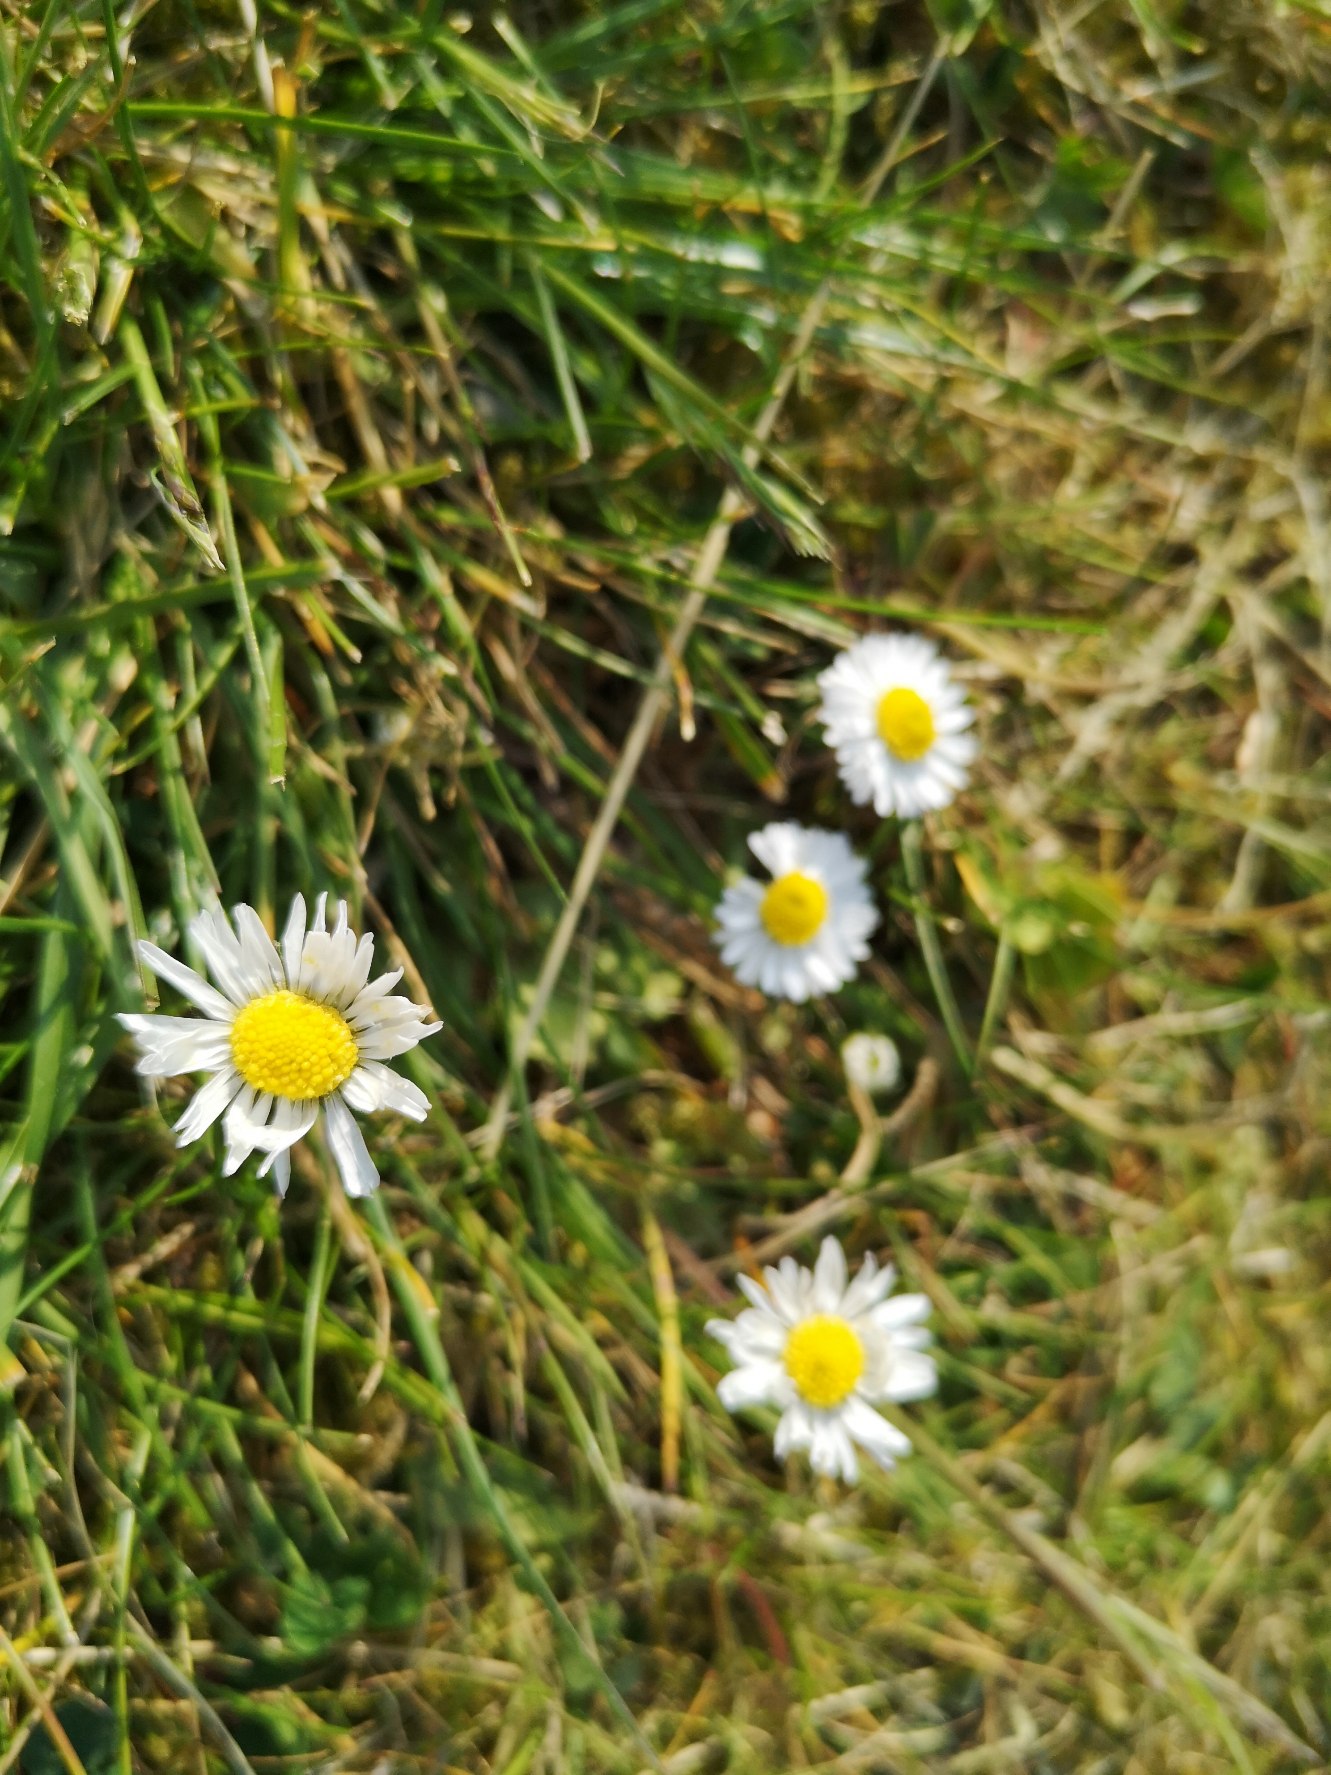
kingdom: Plantae
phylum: Tracheophyta
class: Magnoliopsida
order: Asterales
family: Asteraceae
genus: Bellis
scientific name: Bellis perennis
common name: Tusindfryd
